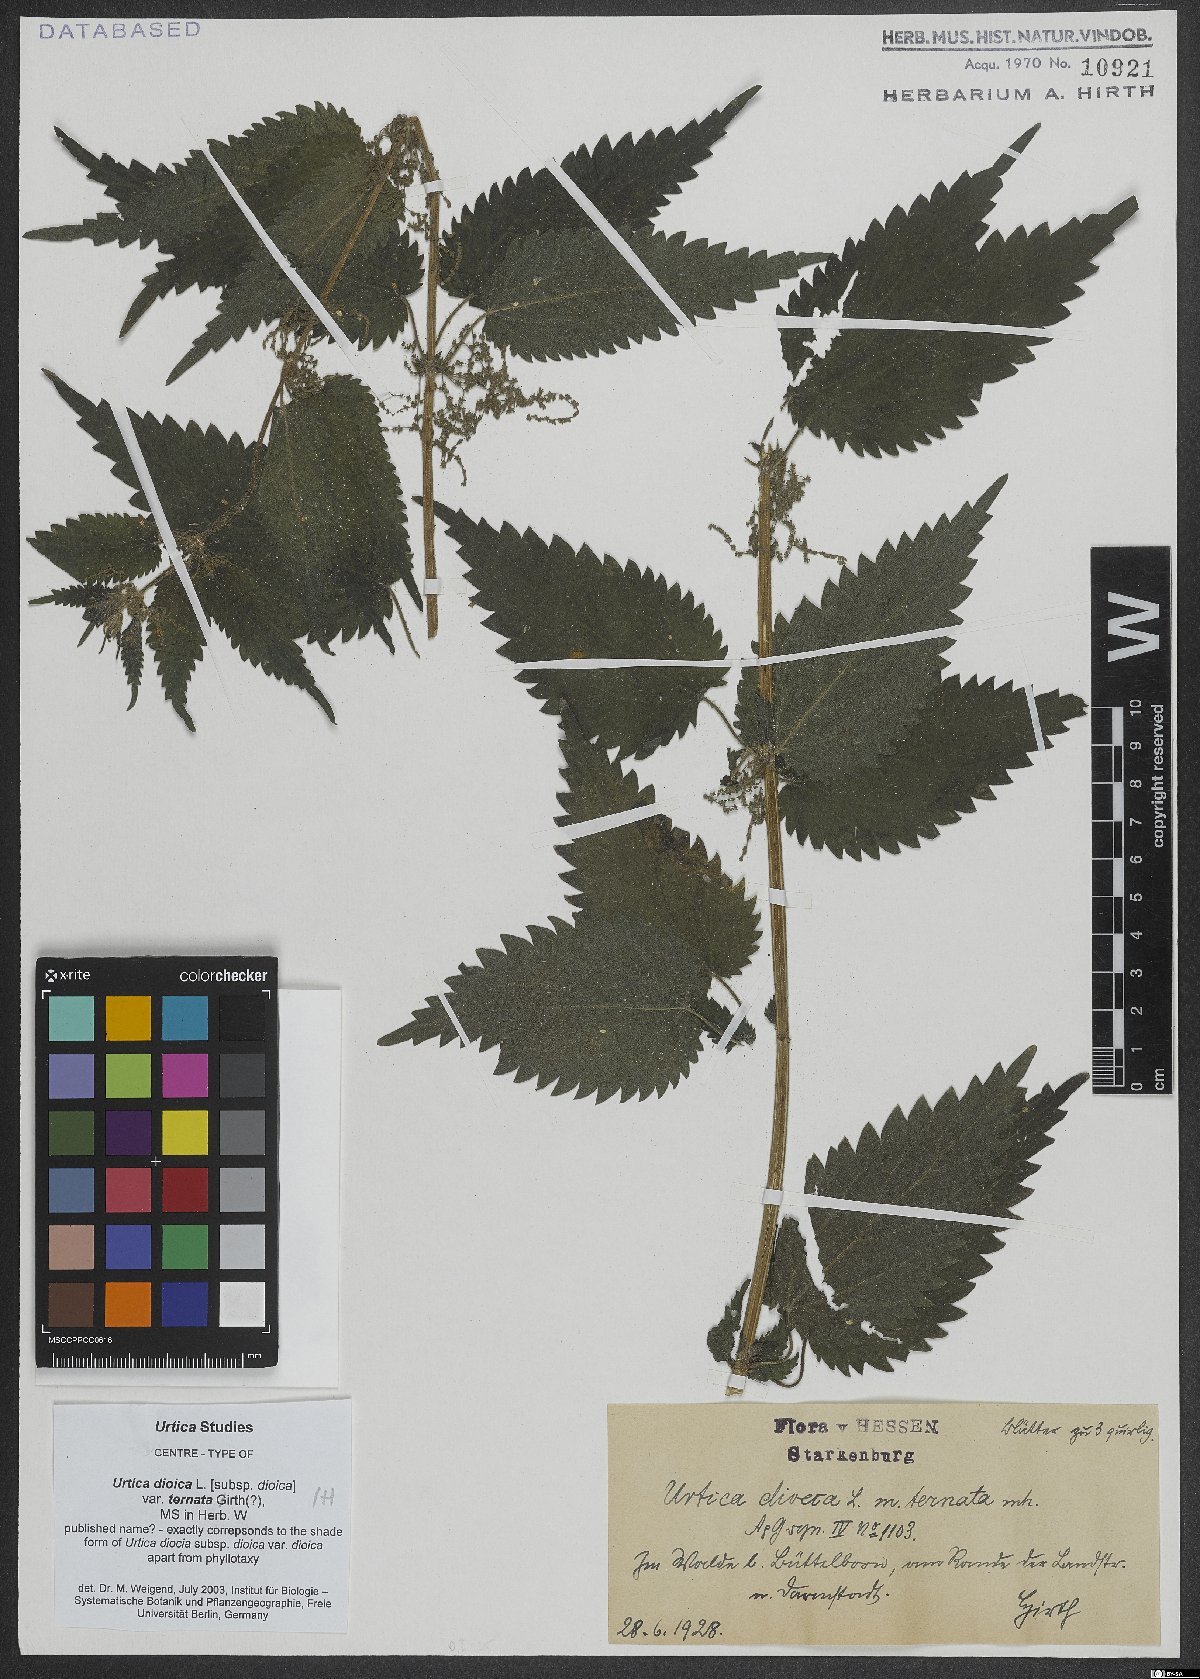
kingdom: Plantae
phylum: Tracheophyta
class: Magnoliopsida
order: Rosales
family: Urticaceae
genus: Urtica
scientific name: Urtica dioica
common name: Common nettle
